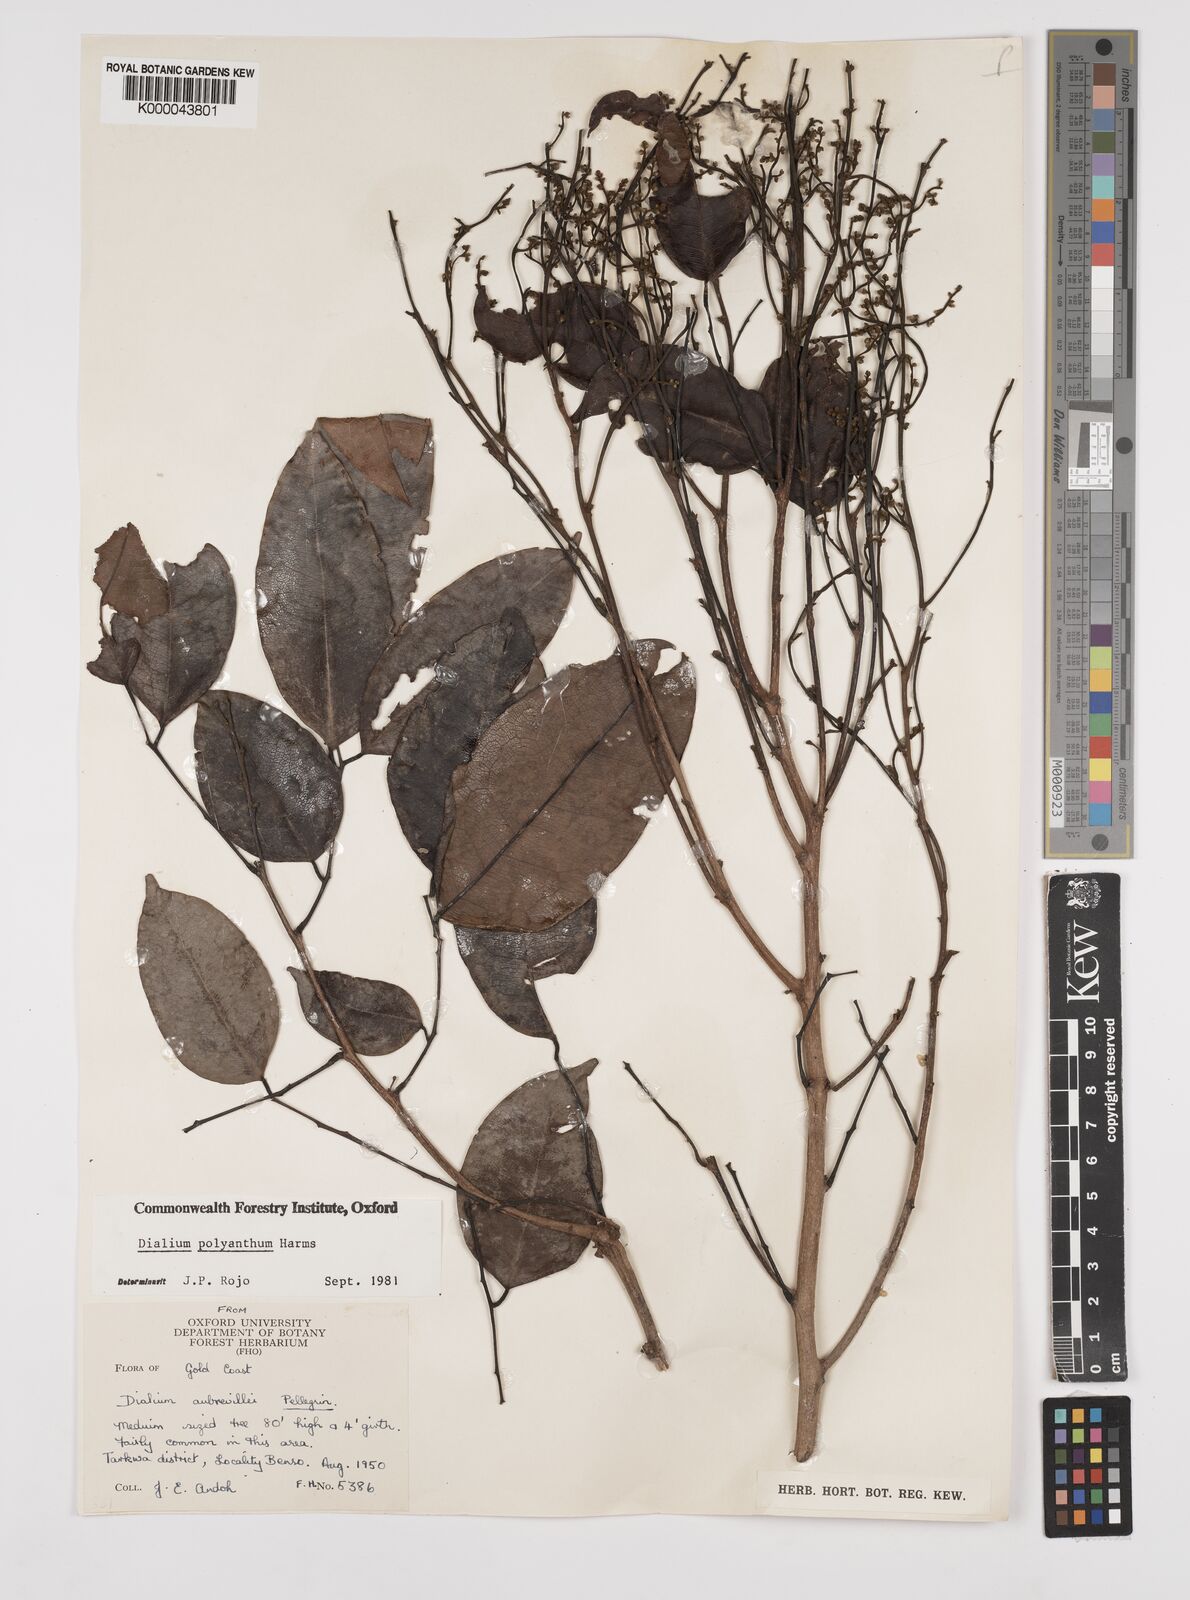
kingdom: Plantae
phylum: Tracheophyta
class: Magnoliopsida
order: Fabales
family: Fabaceae
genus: Dialium
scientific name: Dialium polyanthum
